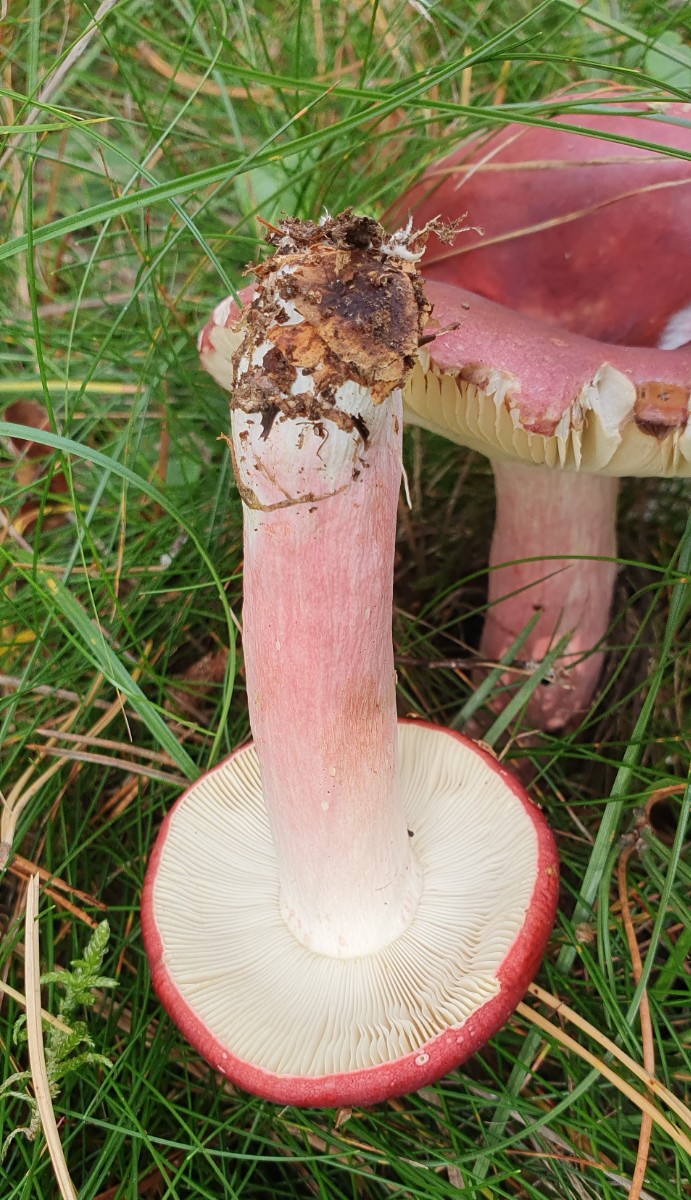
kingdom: Fungi
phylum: Basidiomycota
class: Agaricomycetes
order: Russulales
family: Russulaceae
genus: Russula
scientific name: Russula xerampelina
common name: hummer-skørhat
